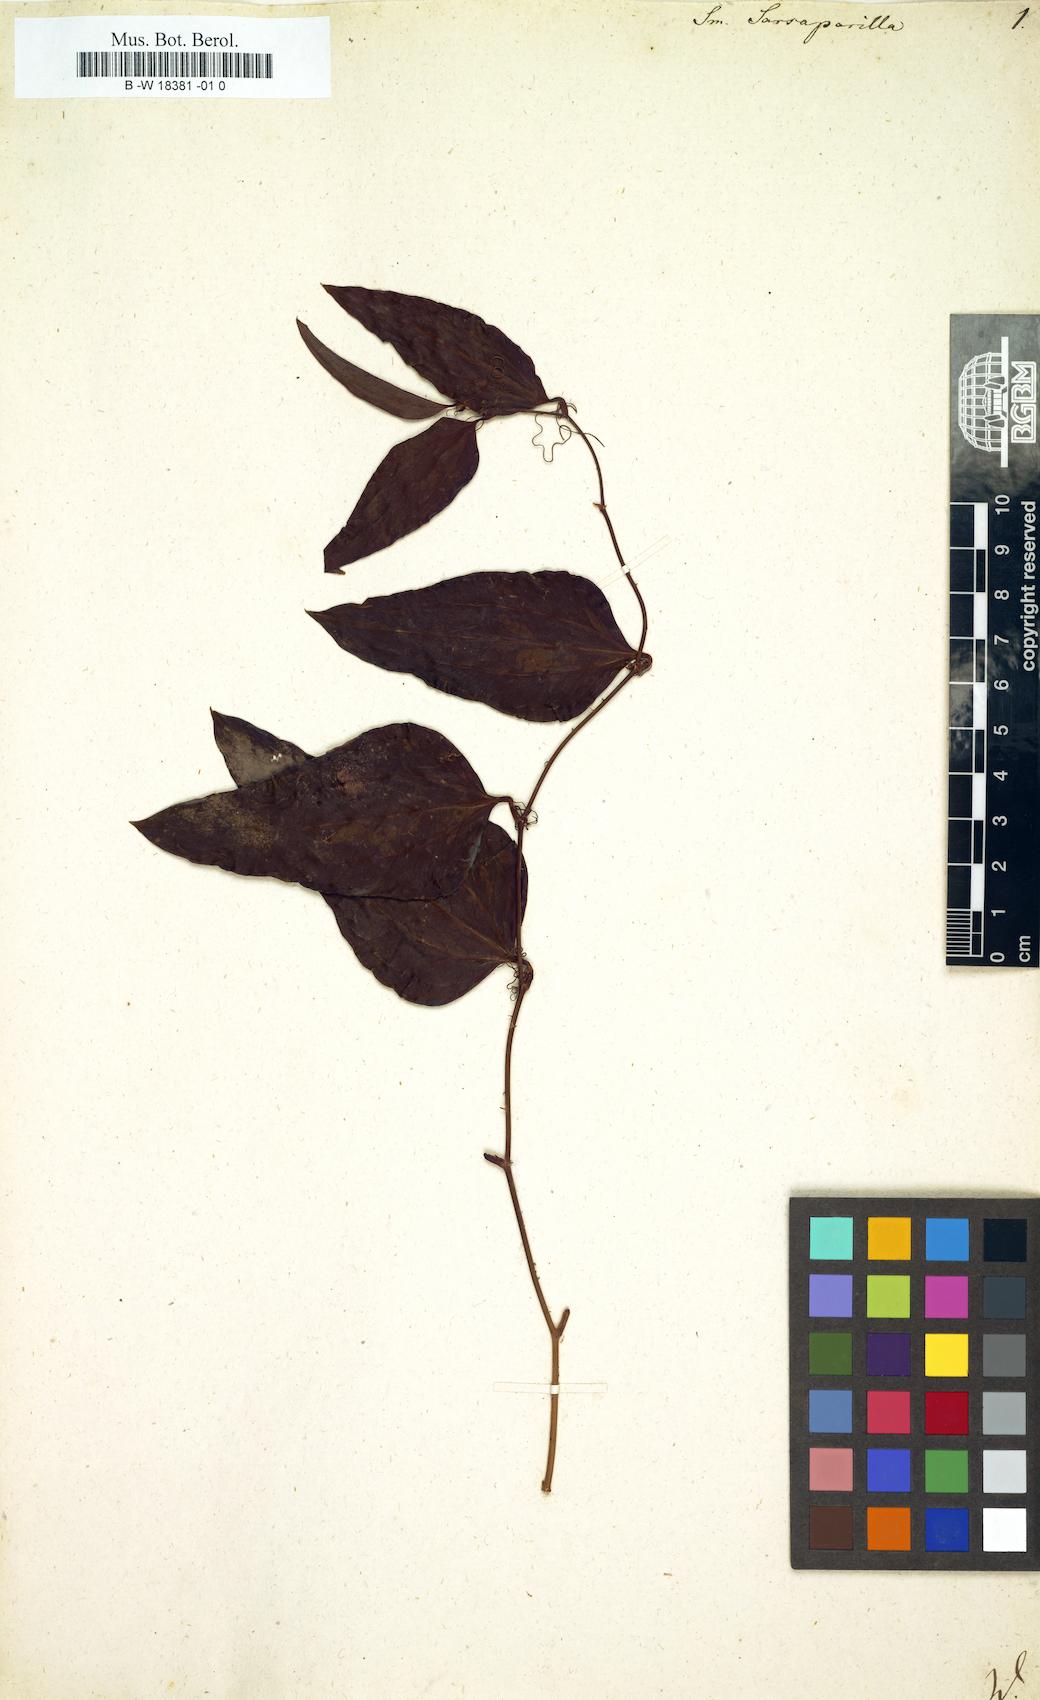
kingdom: Plantae
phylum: Tracheophyta
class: Liliopsida
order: Liliales
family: Smilacaceae
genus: Smilax
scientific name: Smilax glauca
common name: Cat greenbrier
